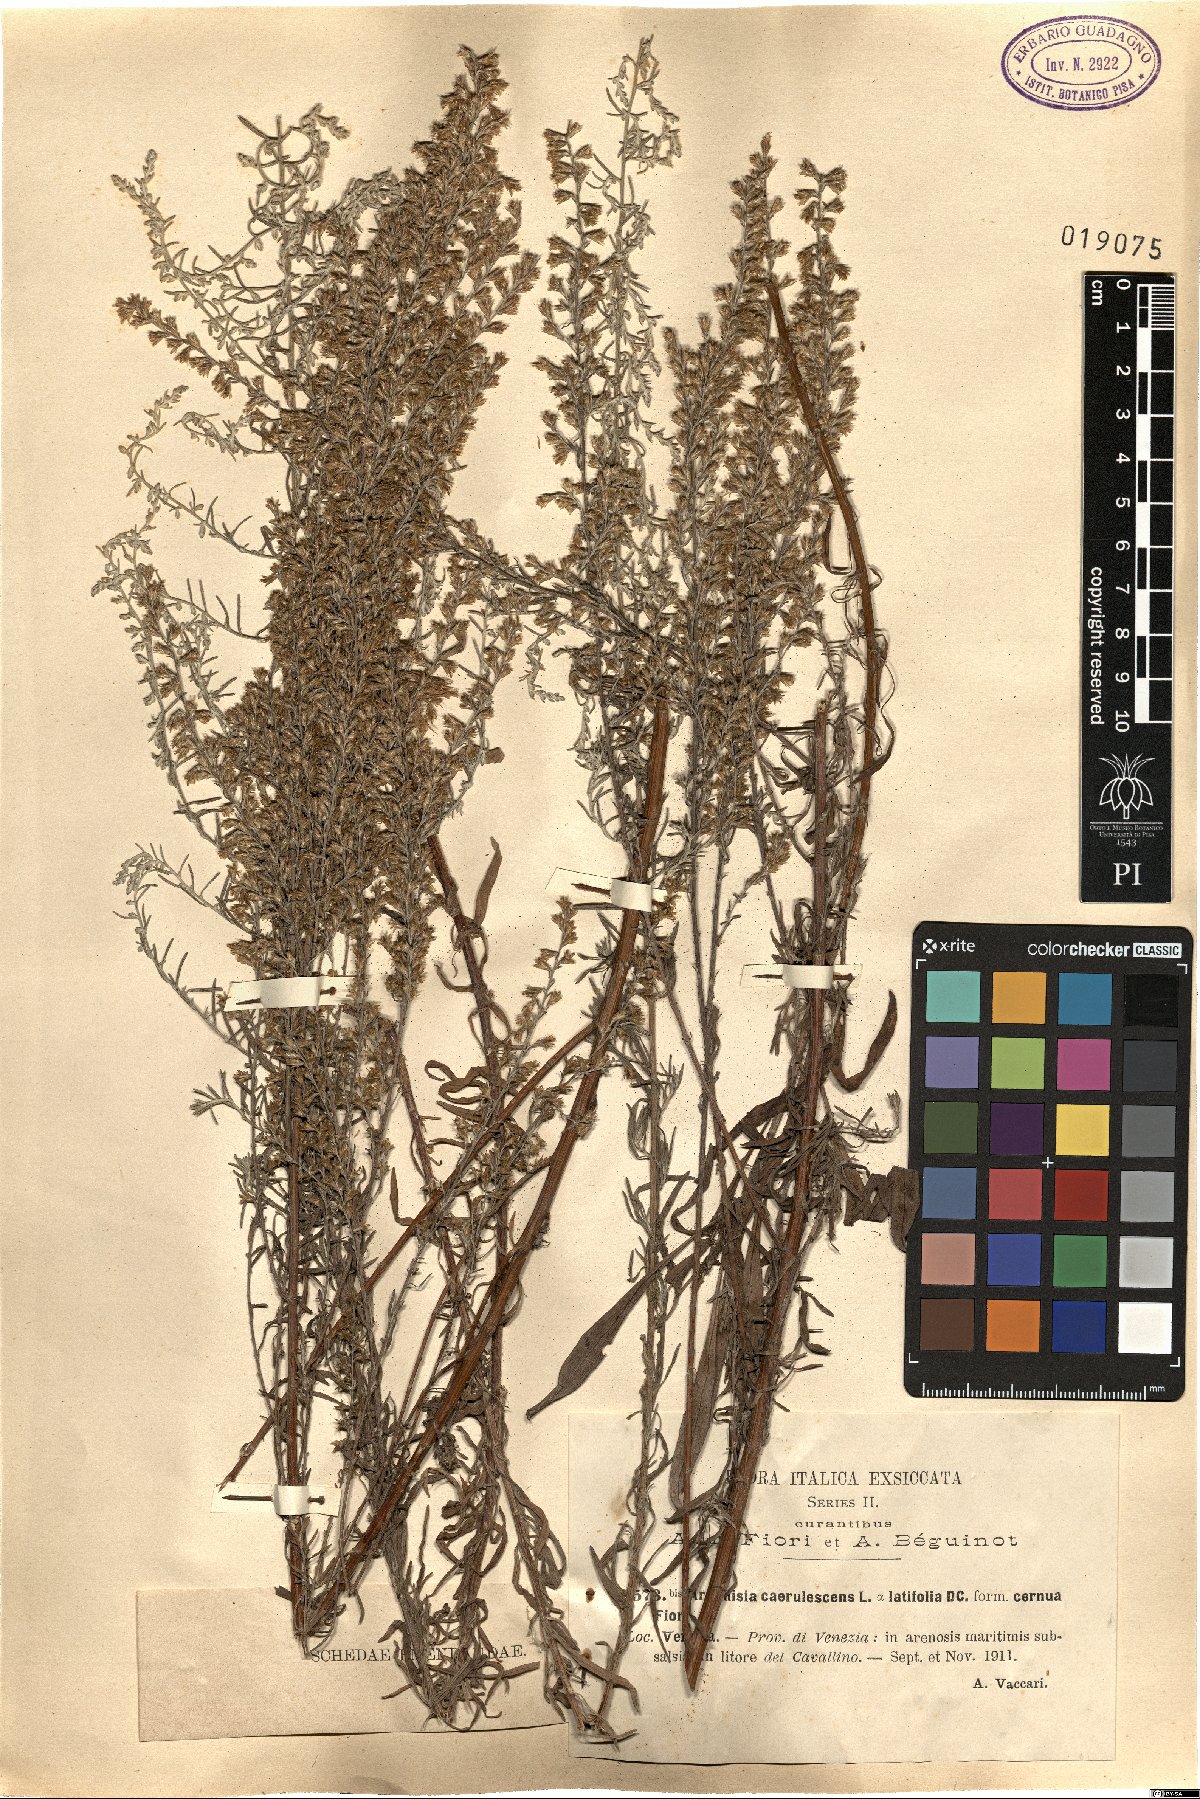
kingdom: Plantae
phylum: Tracheophyta
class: Magnoliopsida
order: Asterales
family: Asteraceae
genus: Artemisia
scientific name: Artemisia caerulescens
